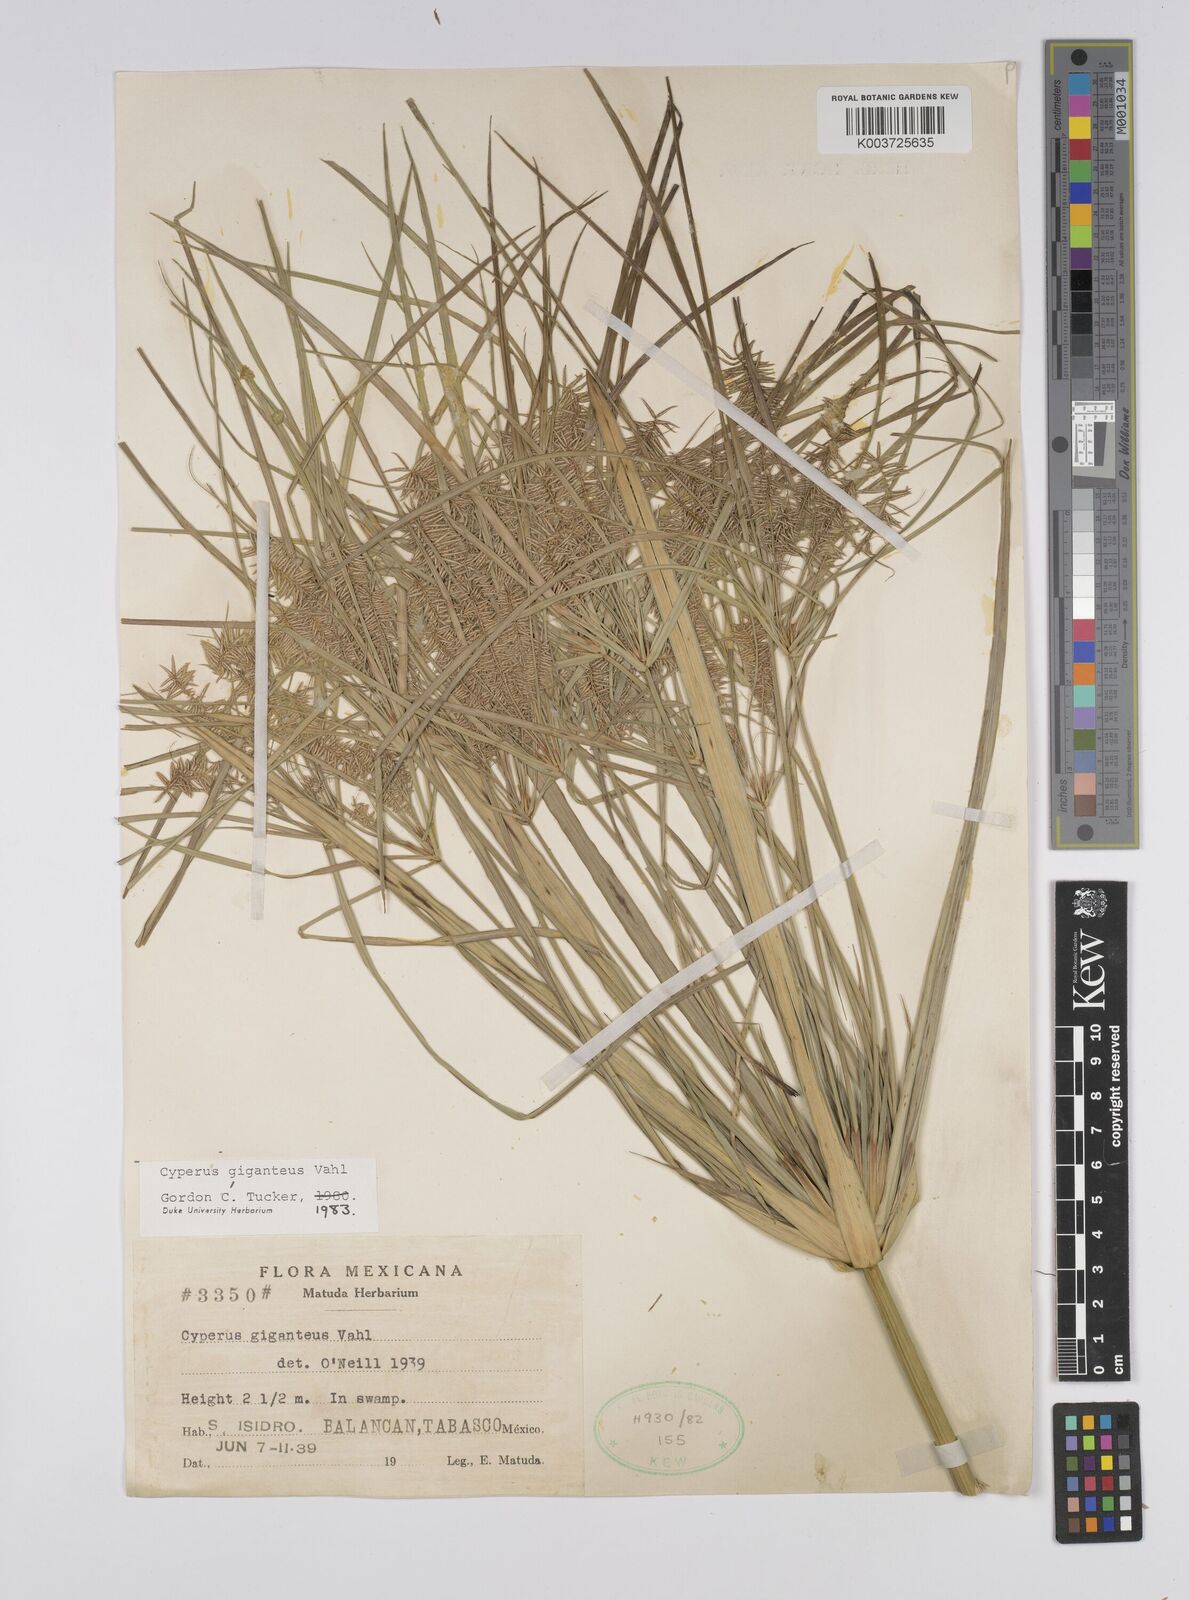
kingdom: Plantae
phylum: Tracheophyta
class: Liliopsida
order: Poales
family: Cyperaceae
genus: Cyperus
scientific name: Cyperus giganteus
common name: Giant flat sedge
